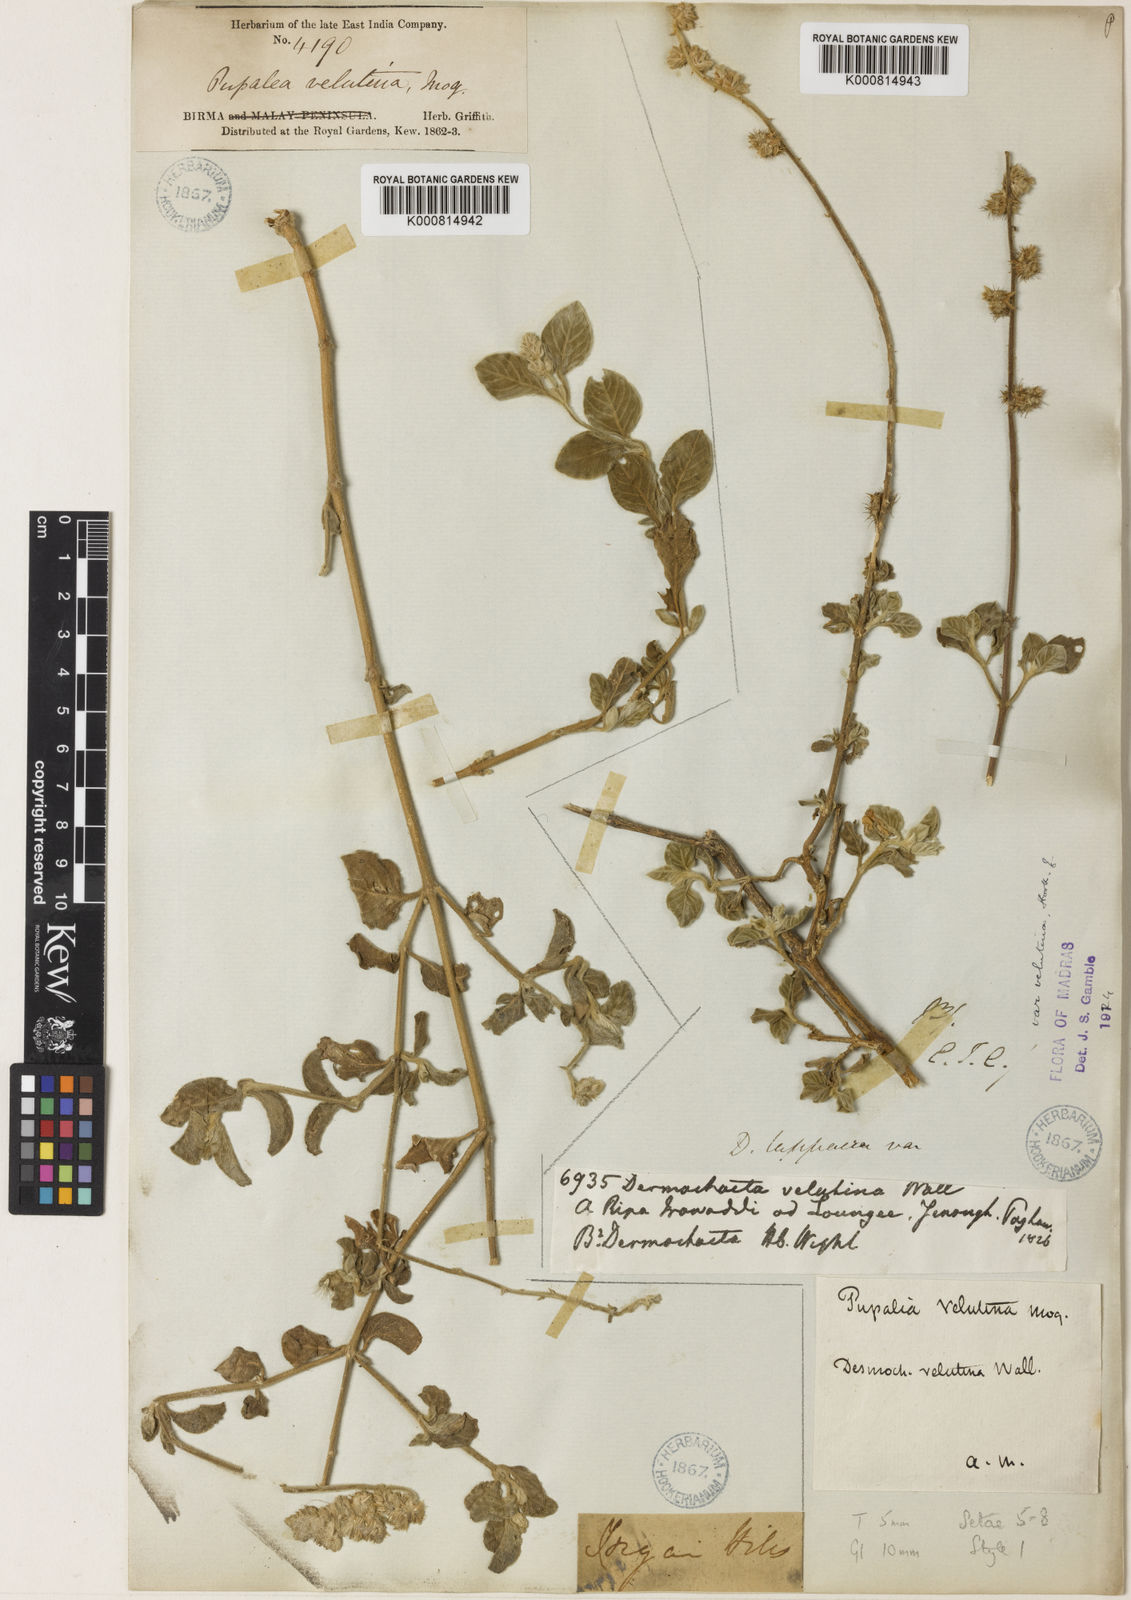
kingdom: Plantae
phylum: Tracheophyta
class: Magnoliopsida
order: Caryophyllales
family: Amaranthaceae
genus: Pupalia
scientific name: Pupalia lappacea
